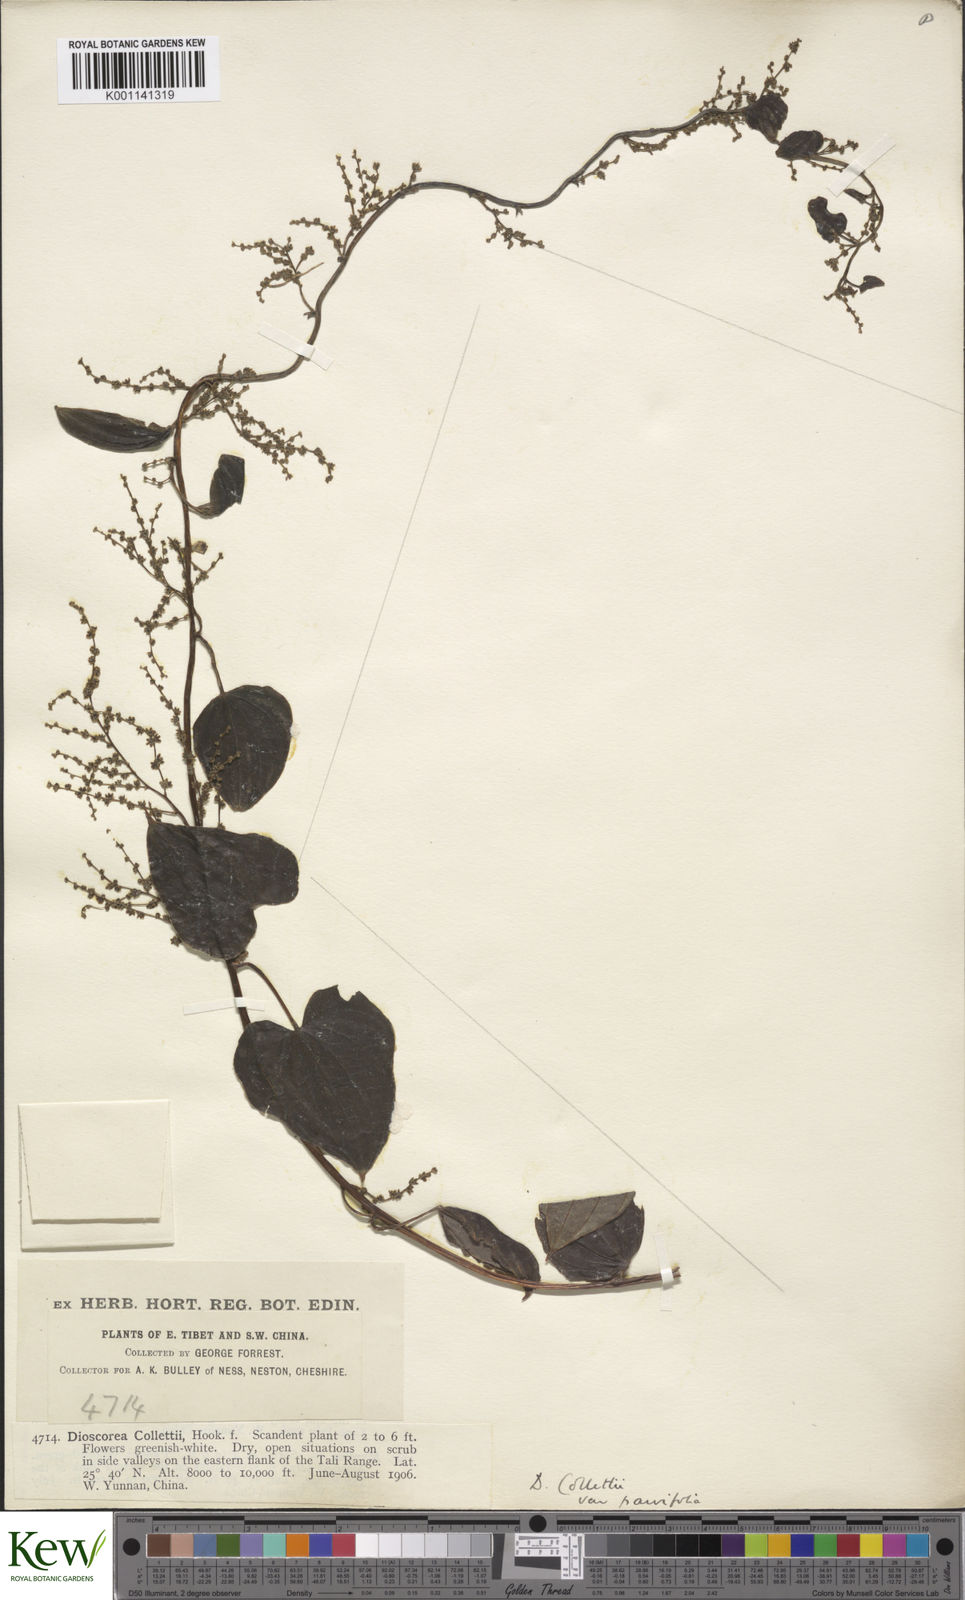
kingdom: Plantae
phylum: Tracheophyta
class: Liliopsida
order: Dioscoreales
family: Dioscoreaceae
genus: Dioscorea
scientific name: Dioscorea collettii
